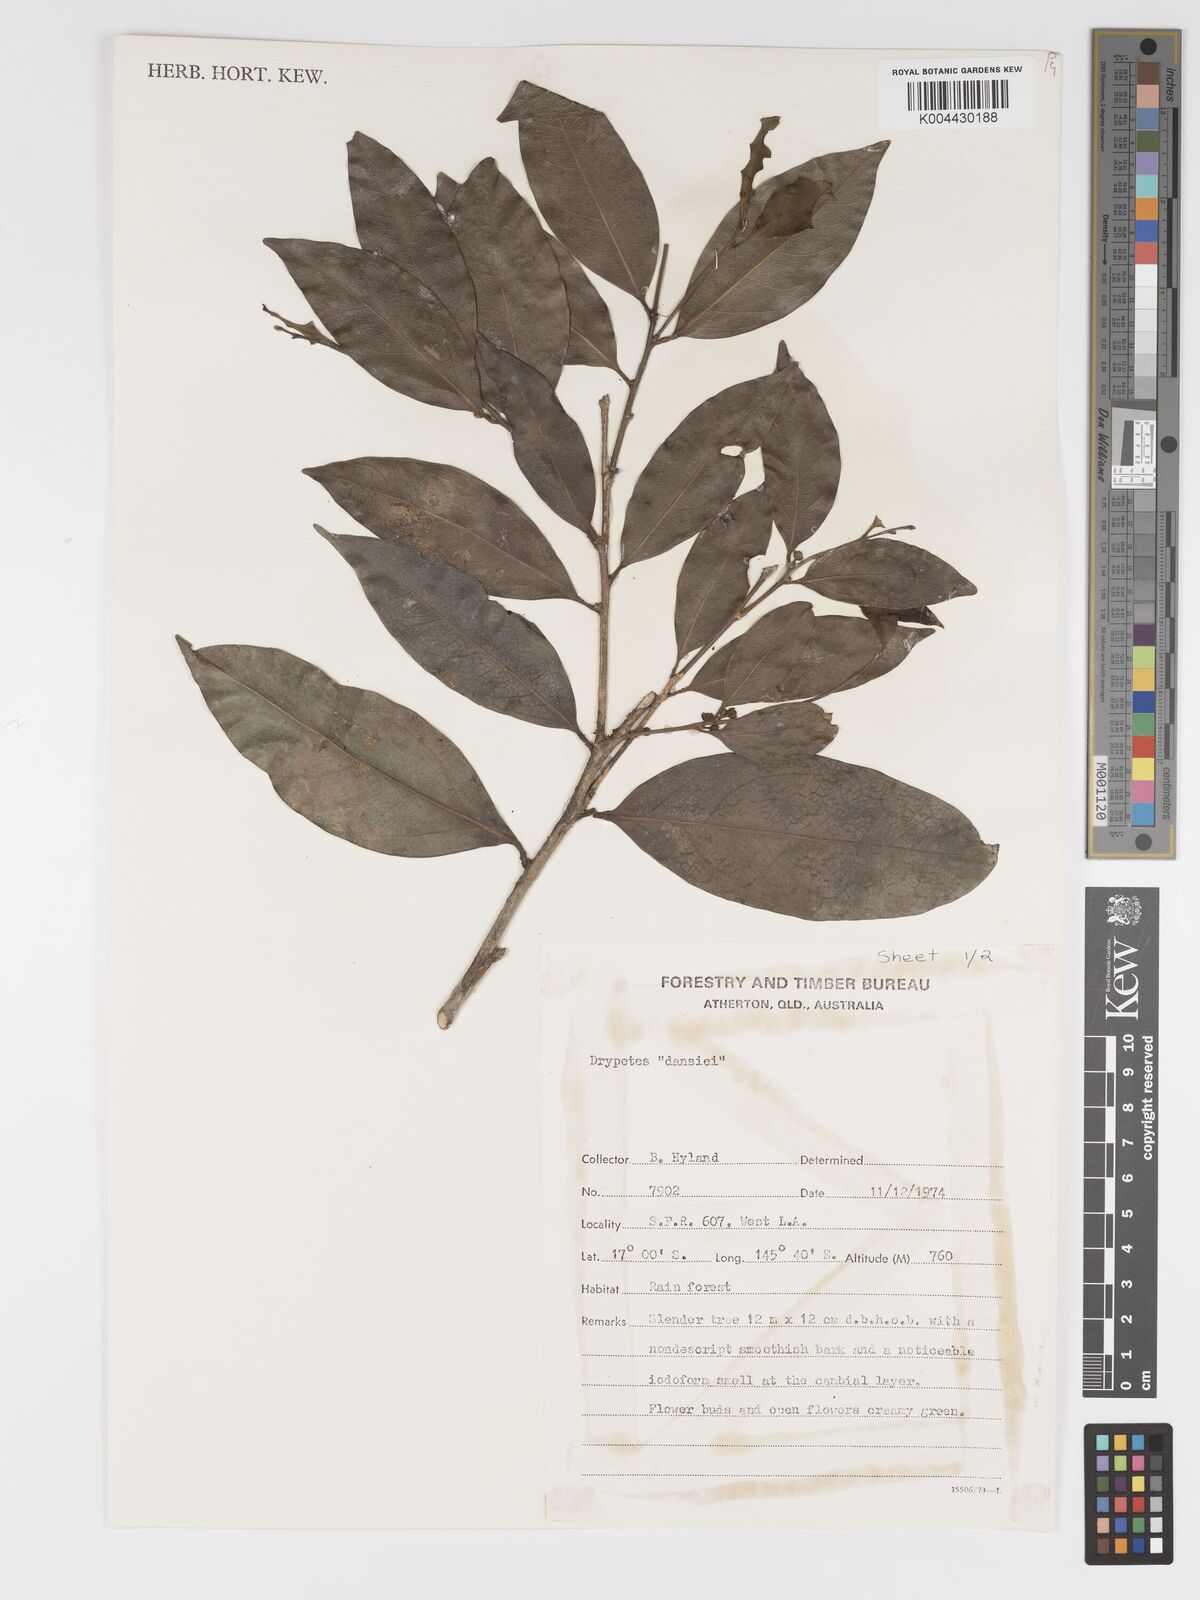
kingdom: Plantae
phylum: Tracheophyta
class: Magnoliopsida
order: Malpighiales
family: Putranjivaceae
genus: Drypetes
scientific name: Drypetes subcubica
